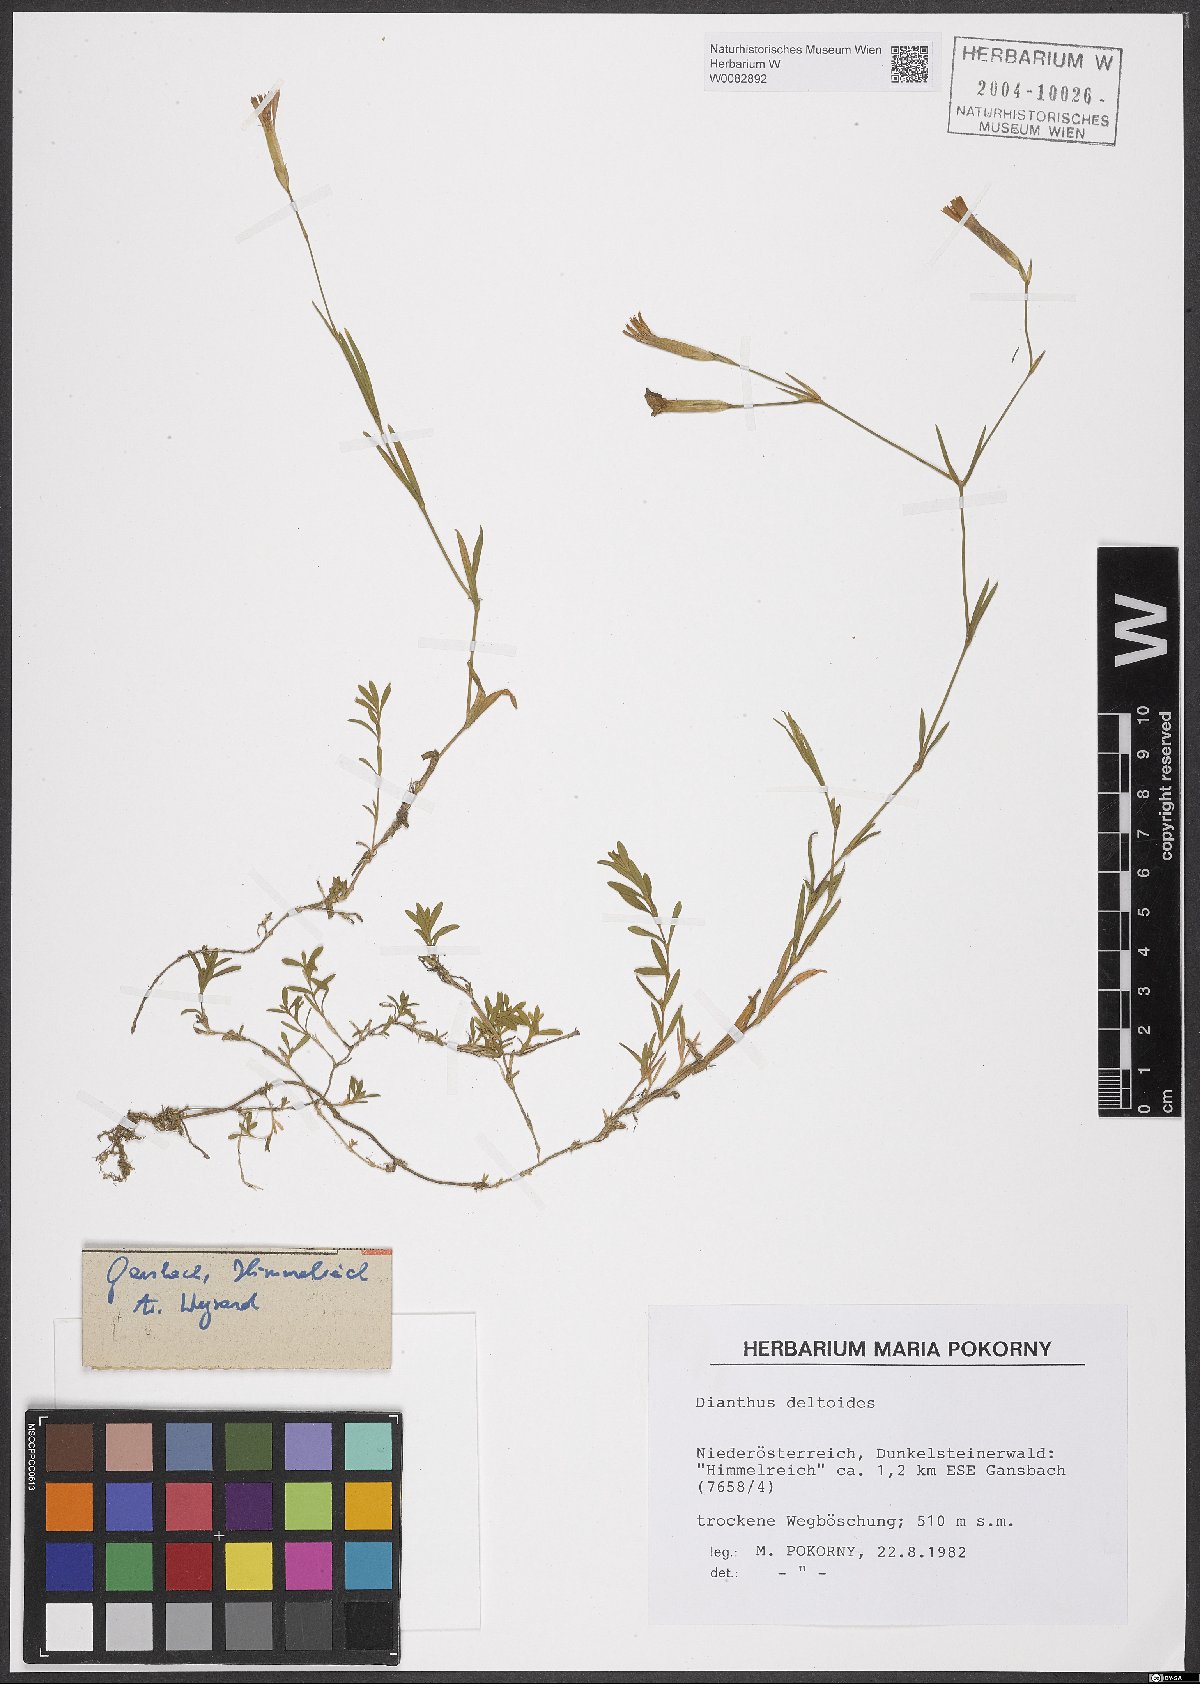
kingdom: Plantae
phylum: Tracheophyta
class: Magnoliopsida
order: Caryophyllales
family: Caryophyllaceae
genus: Dianthus
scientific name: Dianthus deltoides
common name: Maiden pink
